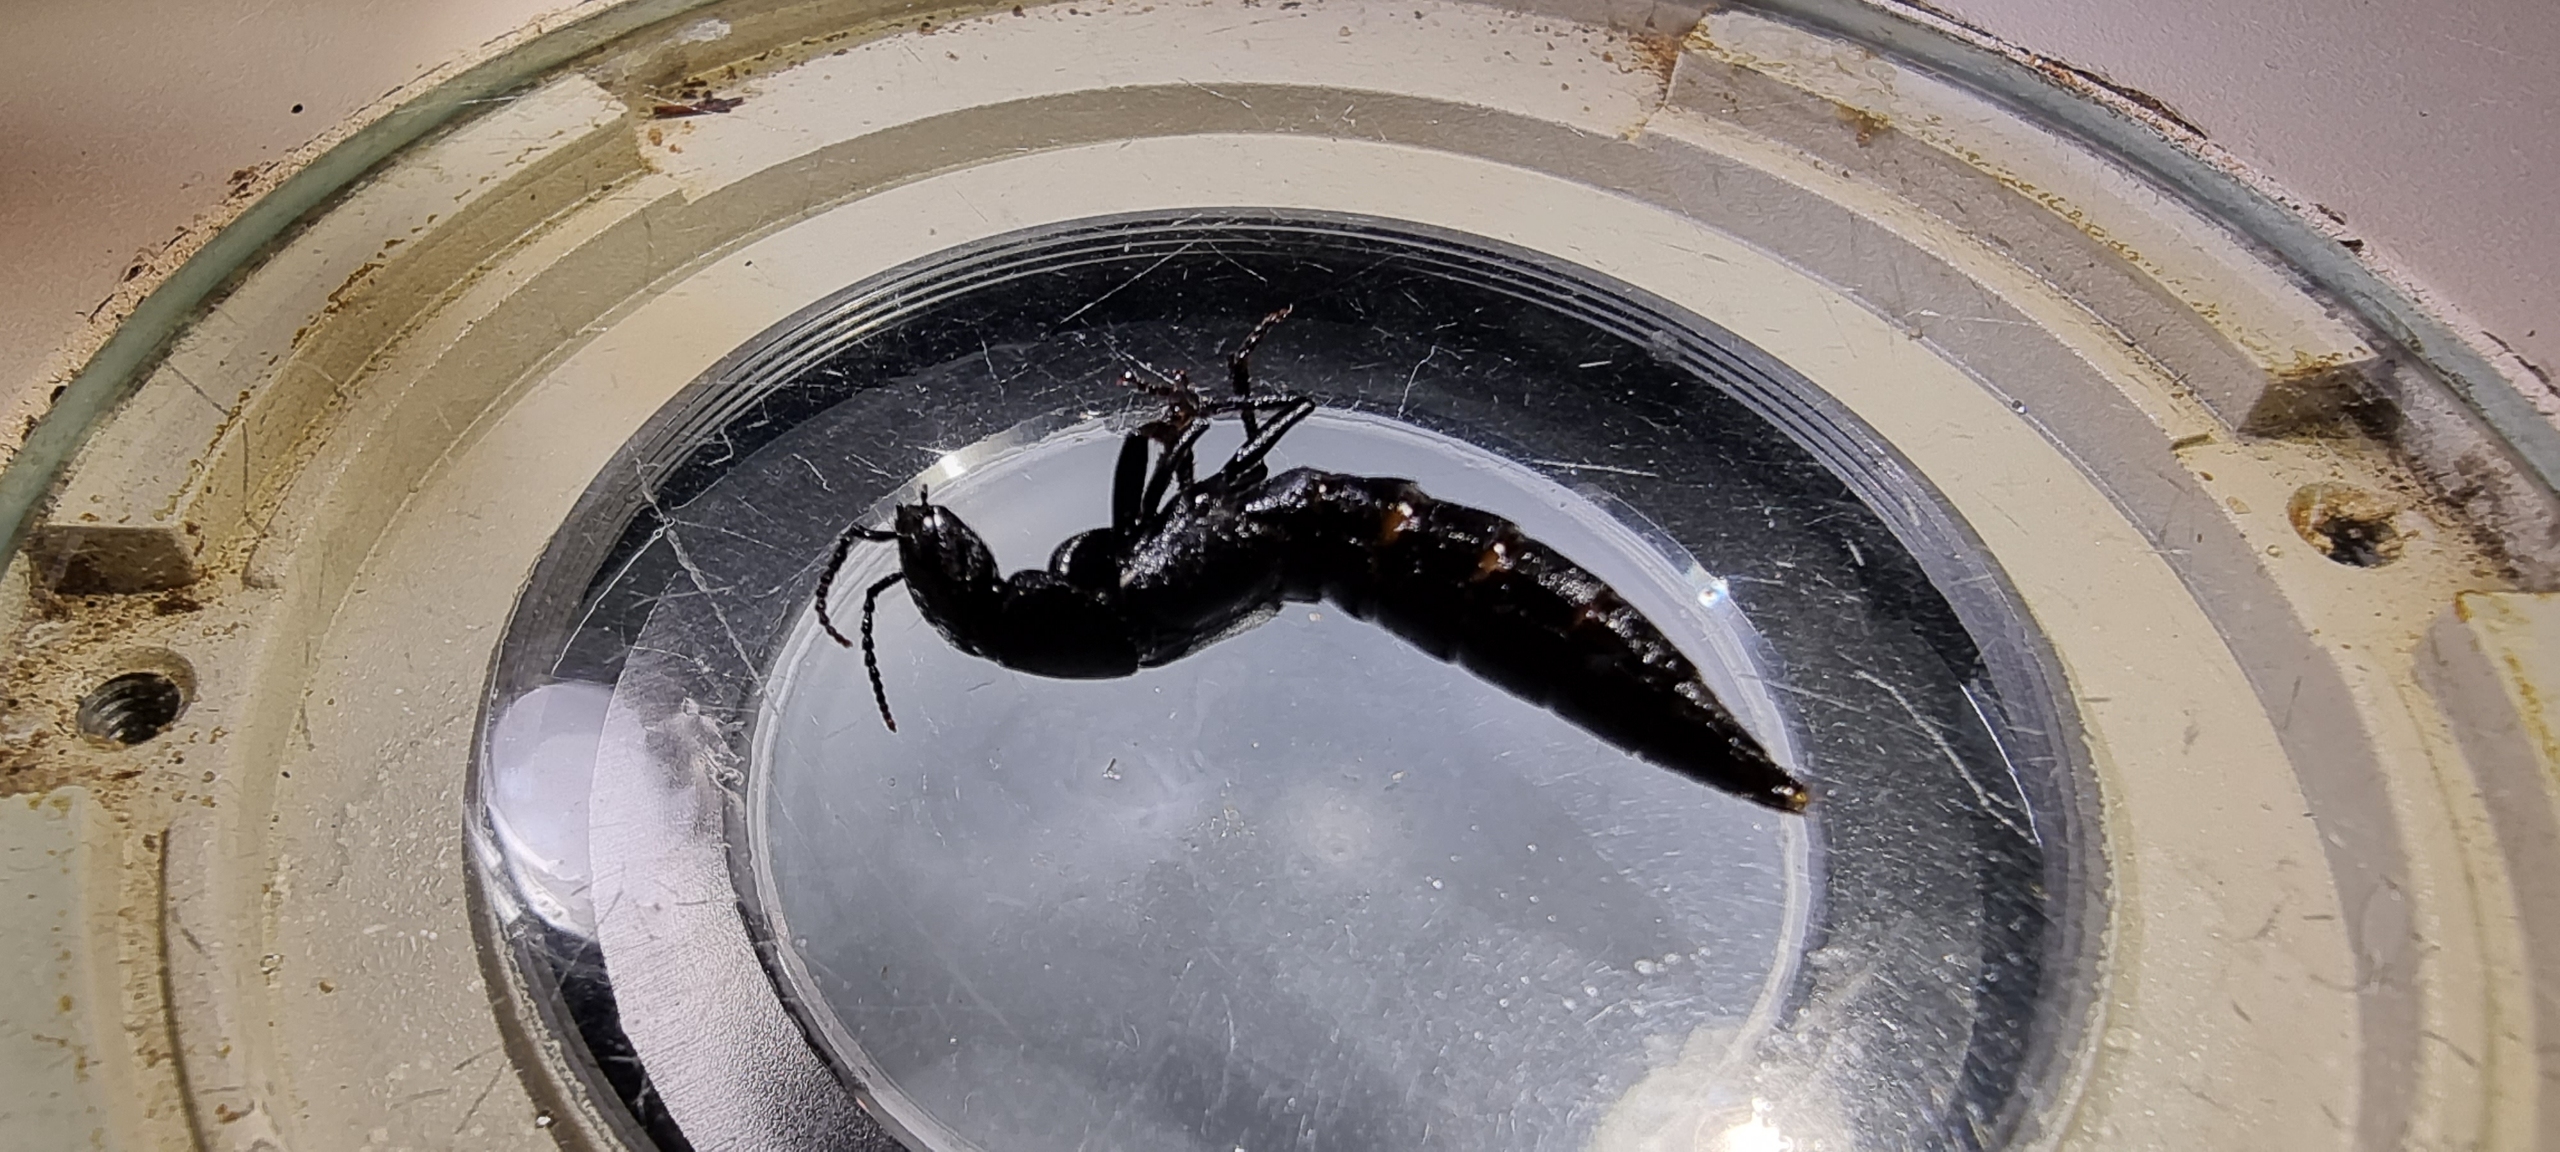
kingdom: Animalia
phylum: Arthropoda
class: Insecta
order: Coleoptera
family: Staphylinidae
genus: Ocypus
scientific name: Ocypus olens
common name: Stor rovbille
